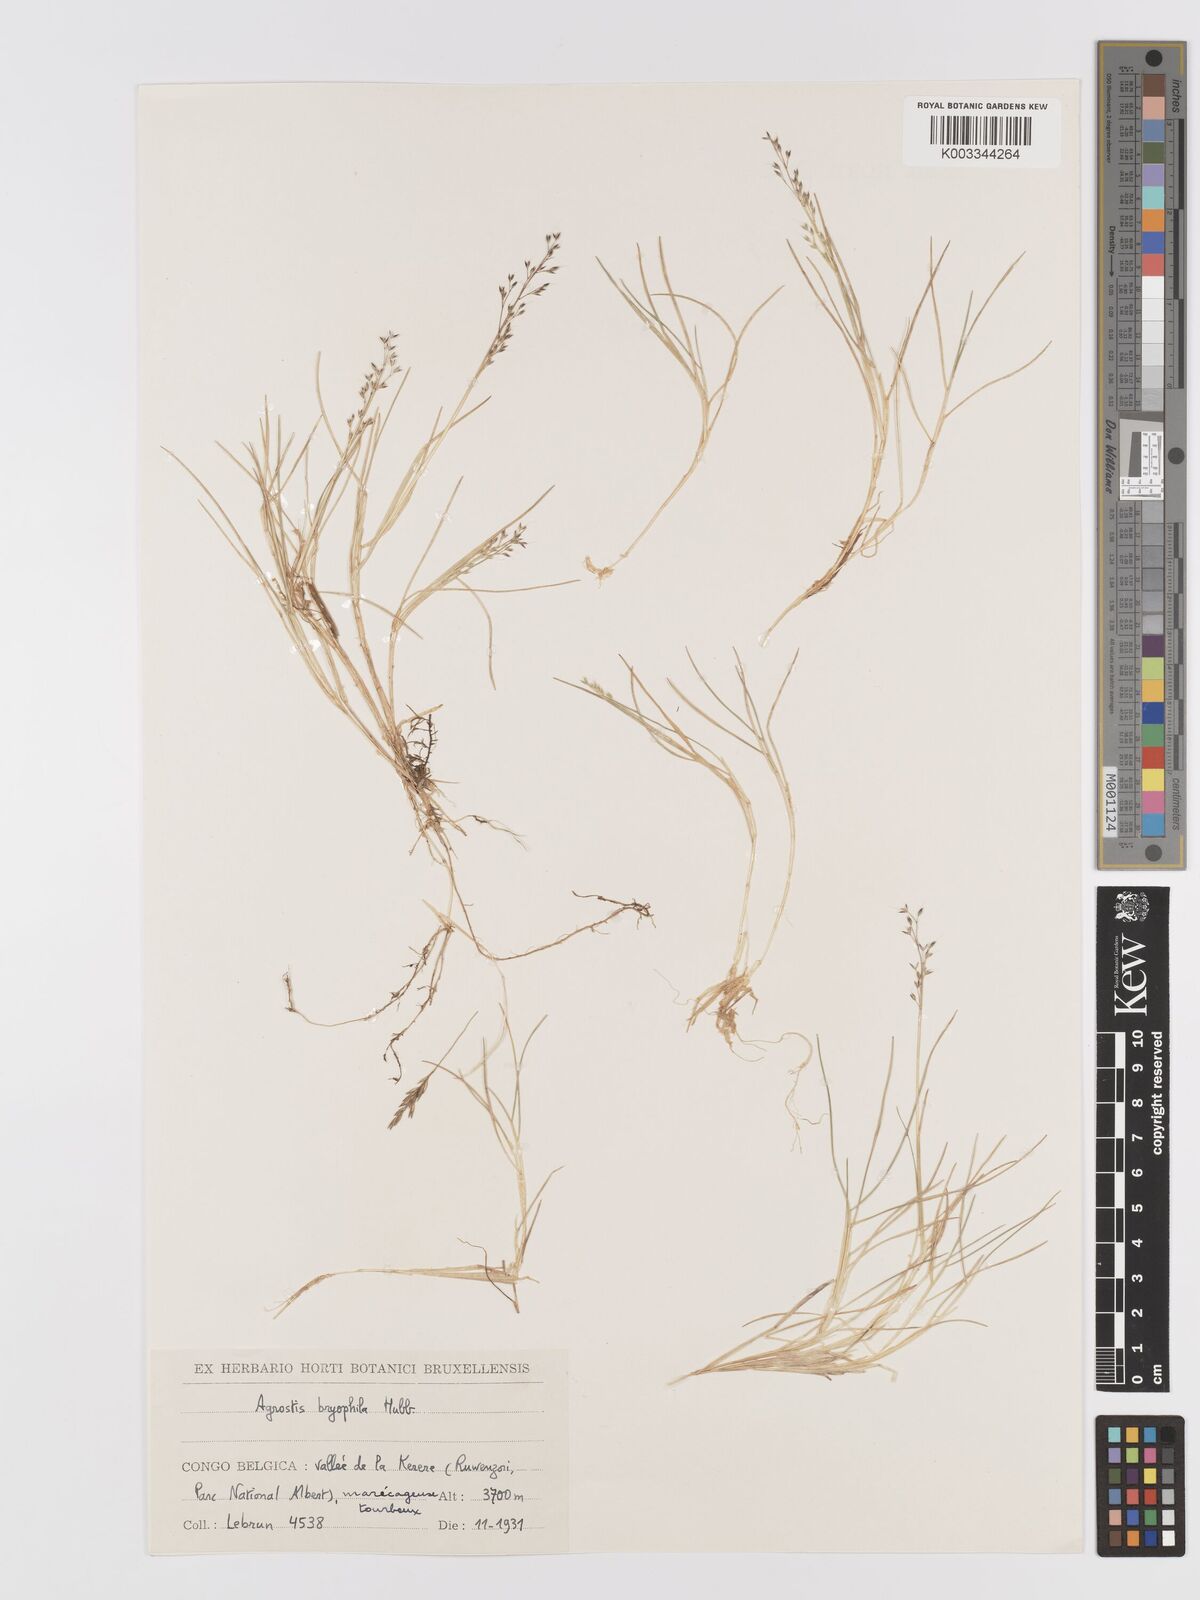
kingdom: Plantae
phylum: Tracheophyta
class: Liliopsida
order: Poales
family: Poaceae
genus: Agrostis
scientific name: Agrostis gracilifolia
